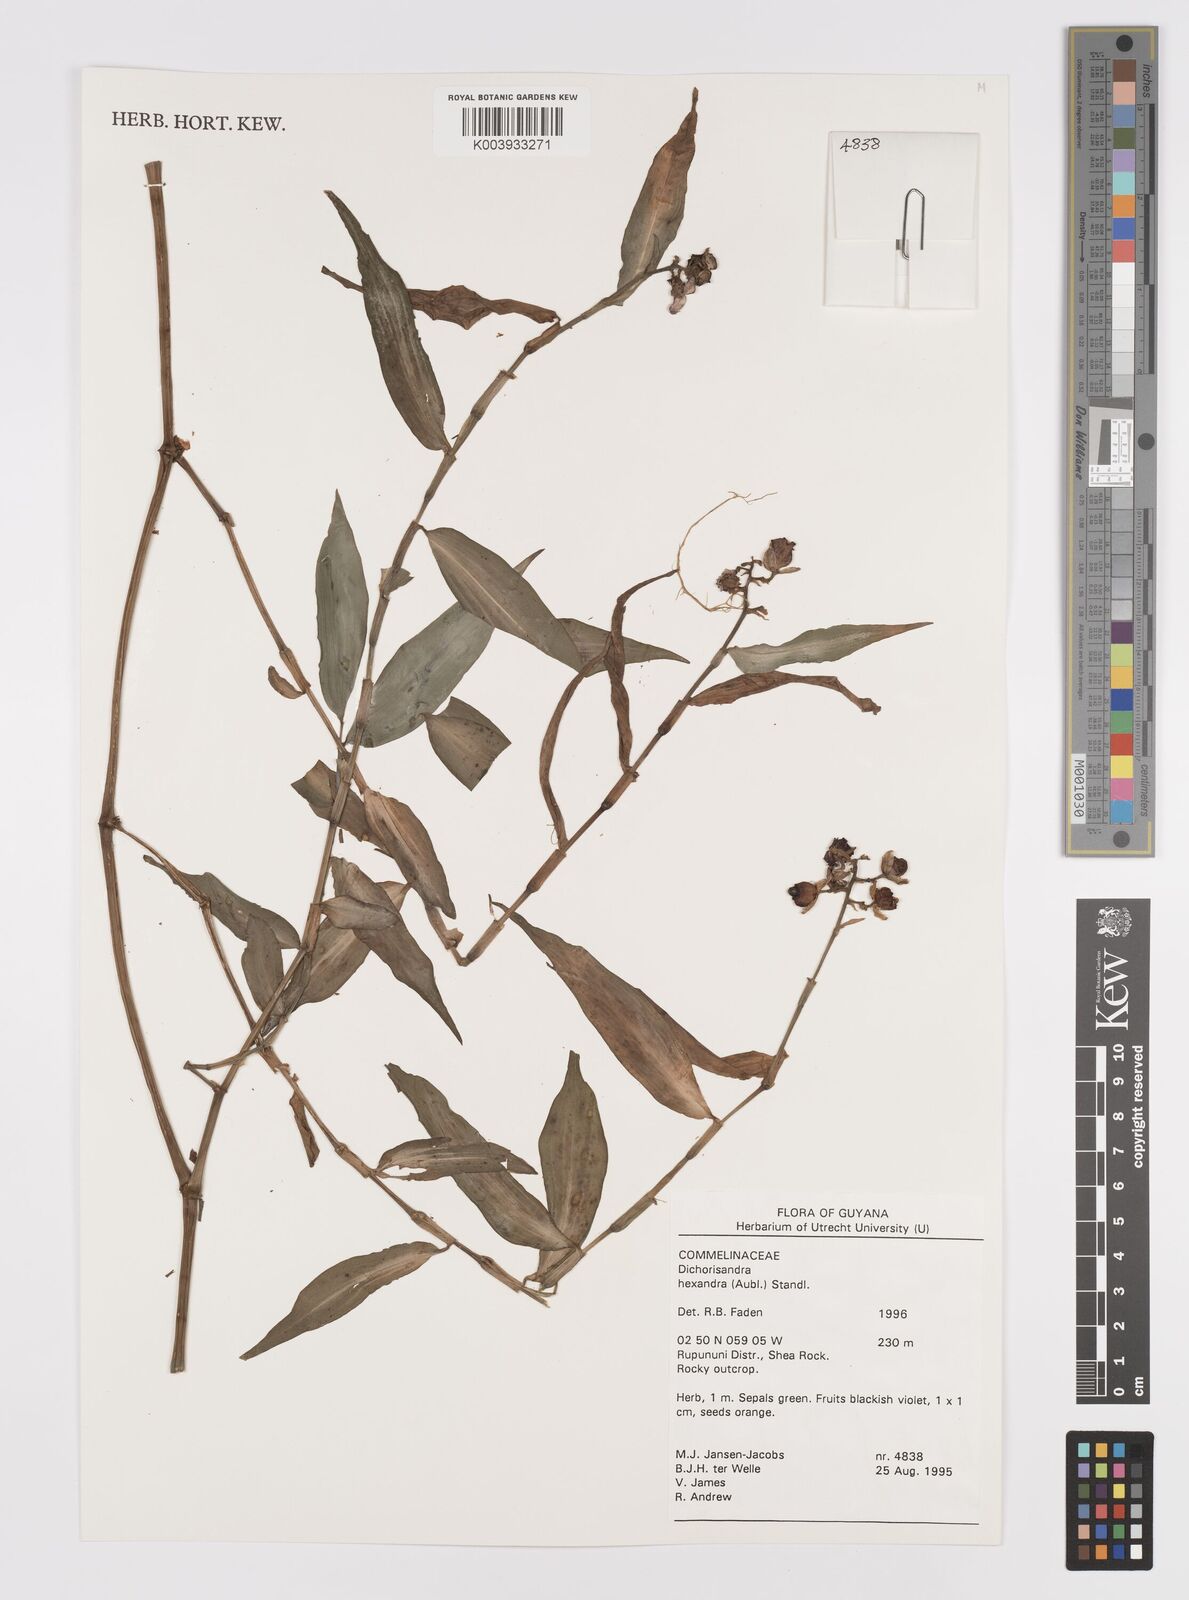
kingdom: Plantae
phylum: Tracheophyta
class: Liliopsida
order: Commelinales
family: Commelinaceae
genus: Dichorisandra
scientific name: Dichorisandra hexandra
